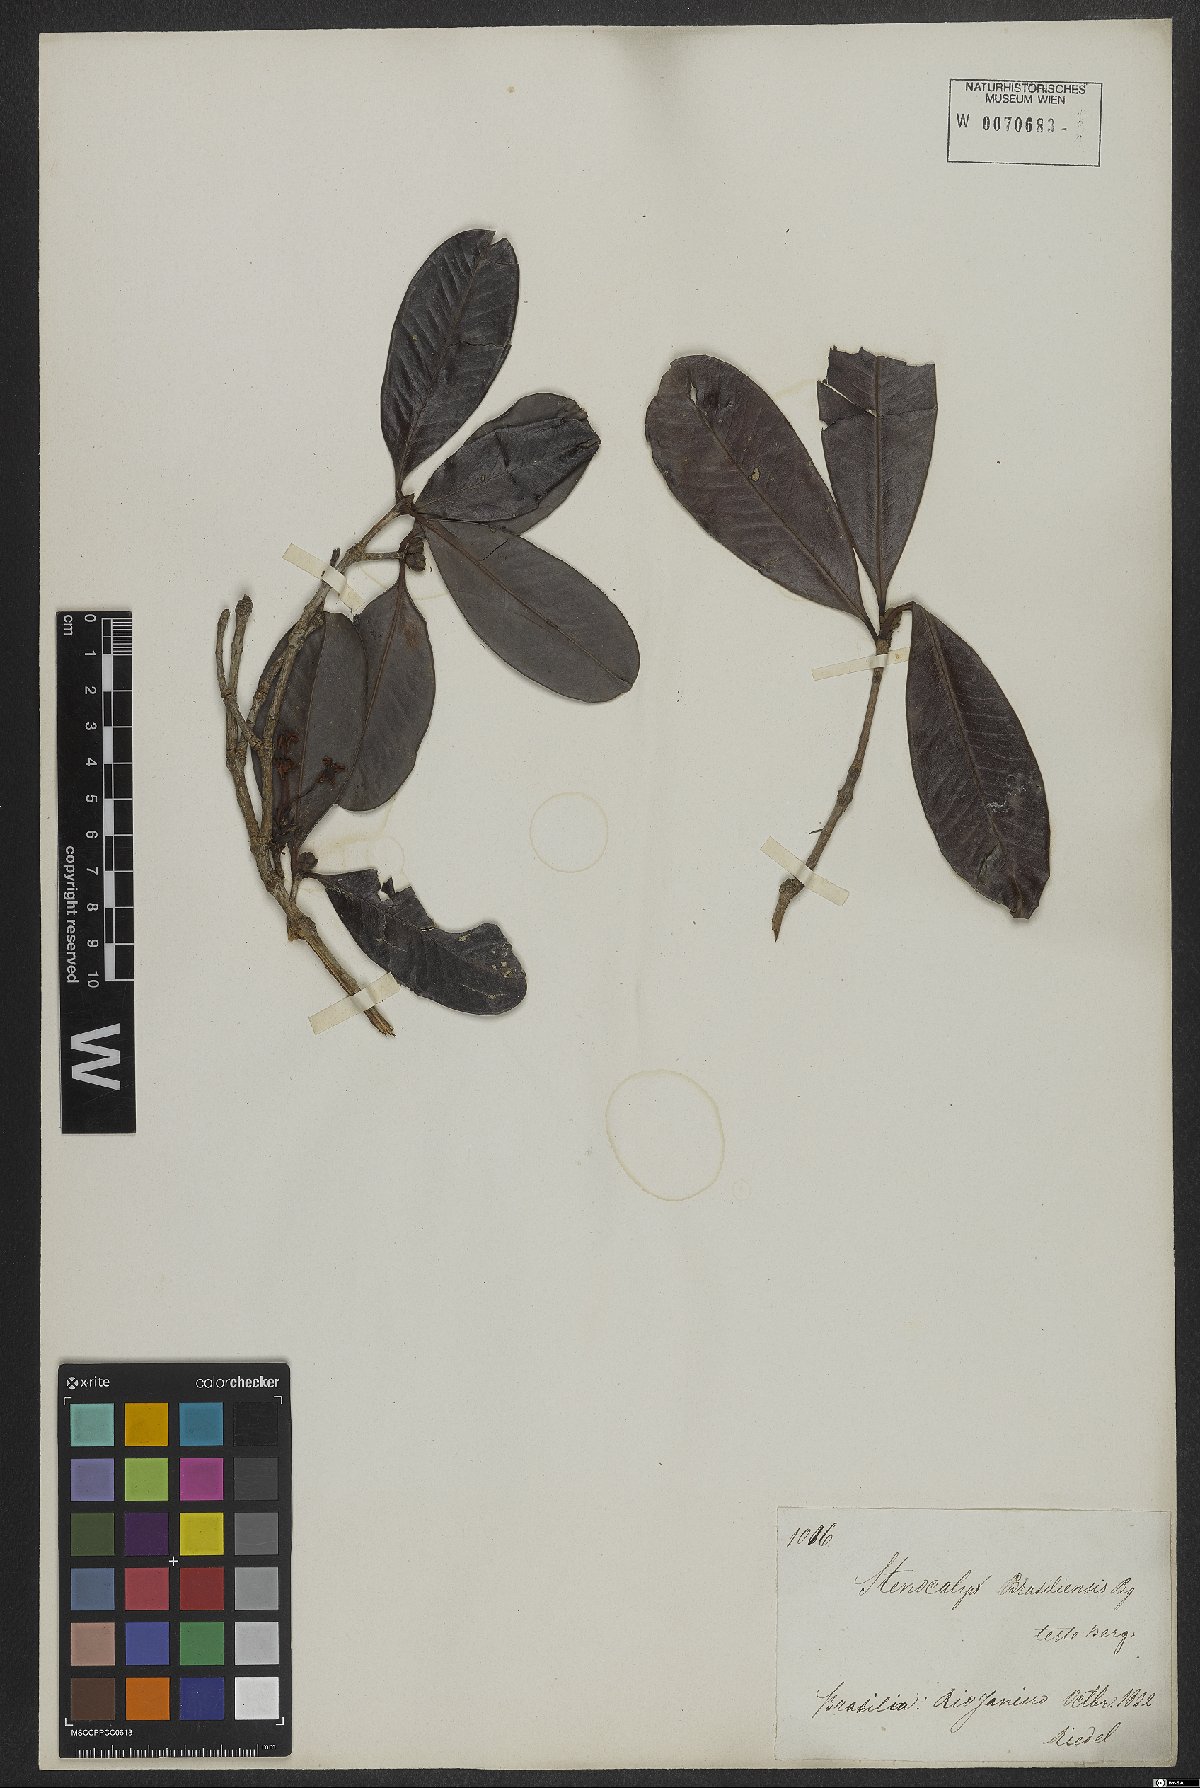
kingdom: Plantae
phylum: Tracheophyta
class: Magnoliopsida
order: Myrtales
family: Myrtaceae
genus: Eugenia
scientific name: Eugenia brasiliensis
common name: Grumichama
